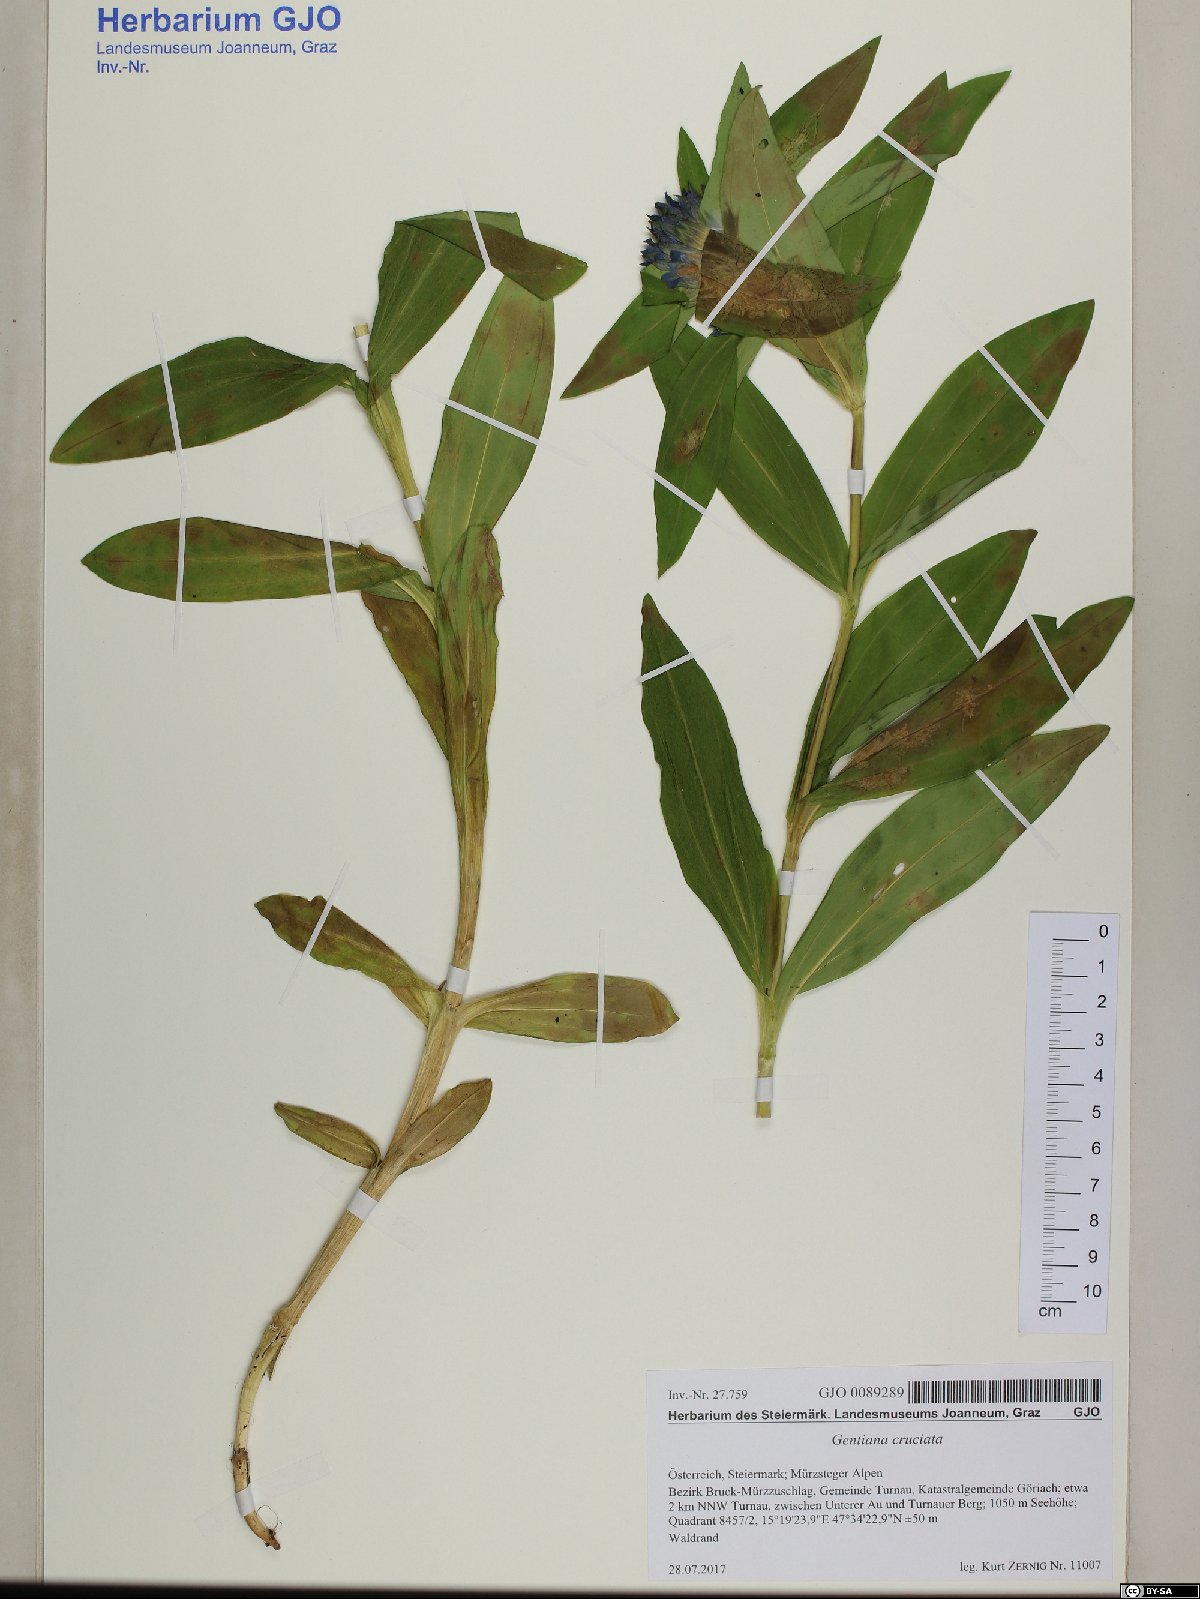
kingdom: Plantae
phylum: Tracheophyta
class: Magnoliopsida
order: Gentianales
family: Gentianaceae
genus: Gentiana
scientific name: Gentiana cruciata
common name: Cross gentian
